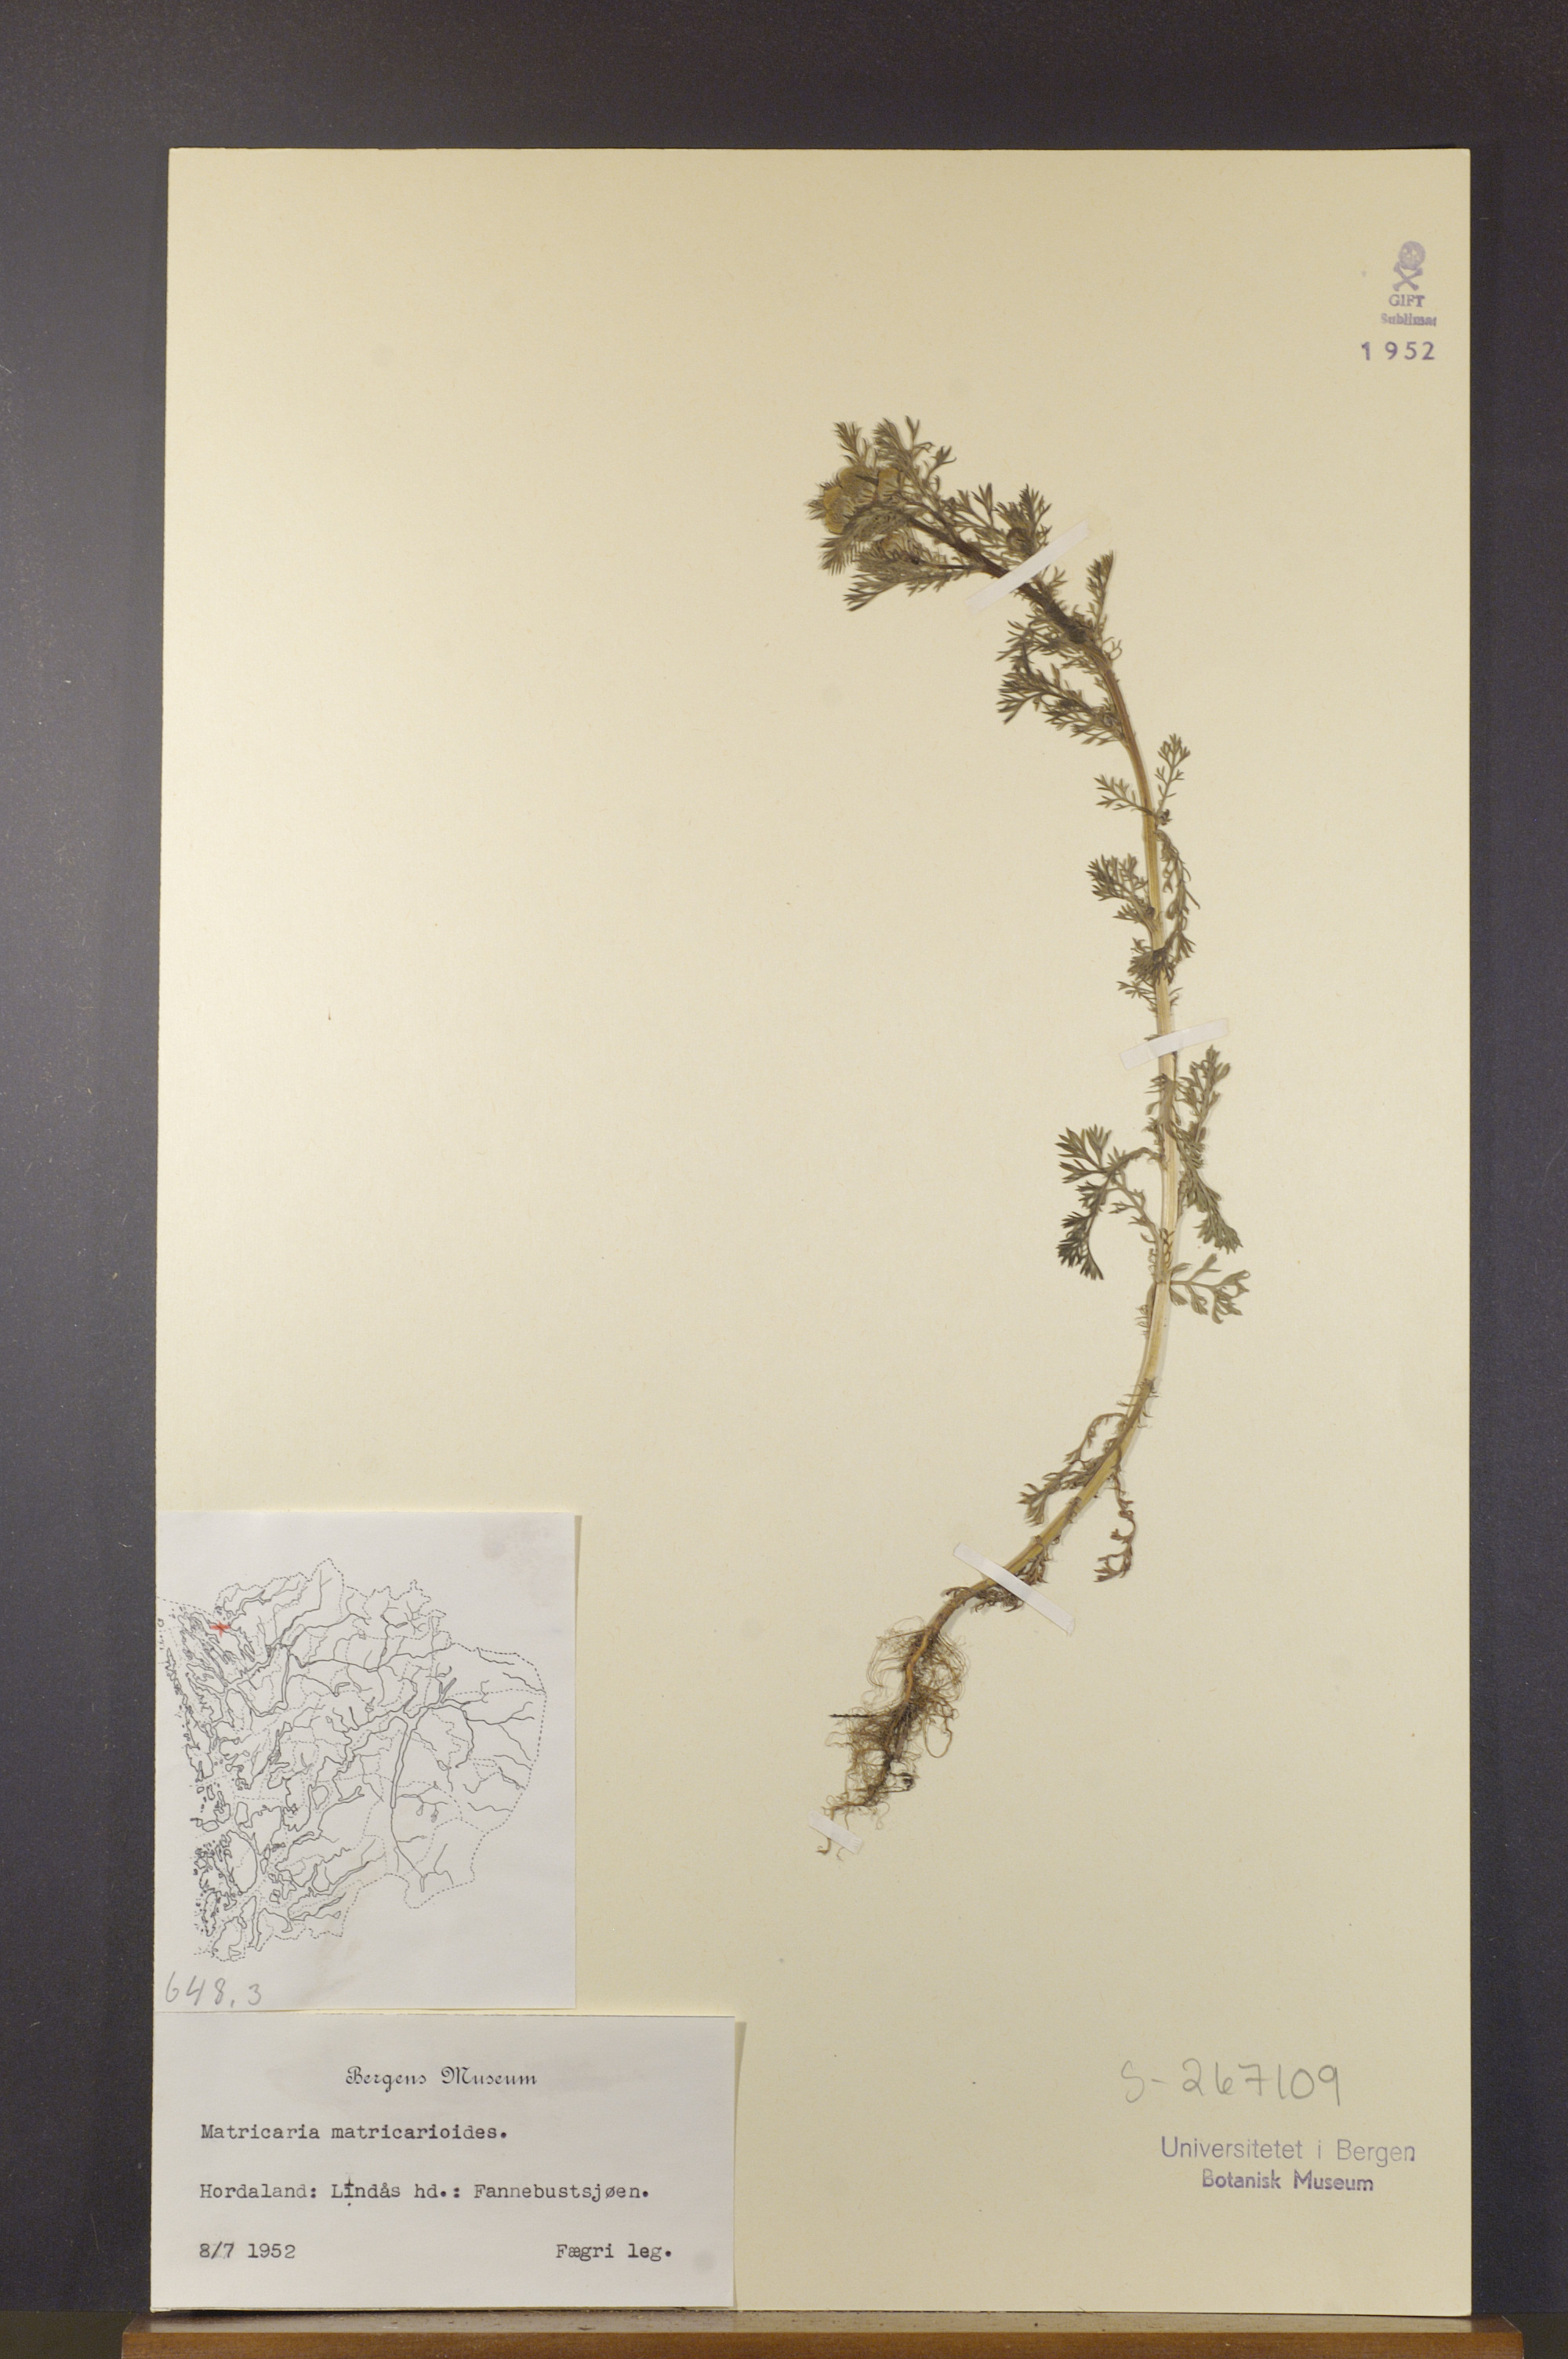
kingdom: Plantae
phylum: Tracheophyta
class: Magnoliopsida
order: Asterales
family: Asteraceae
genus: Matricaria
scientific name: Matricaria discoidea
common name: Disc mayweed
